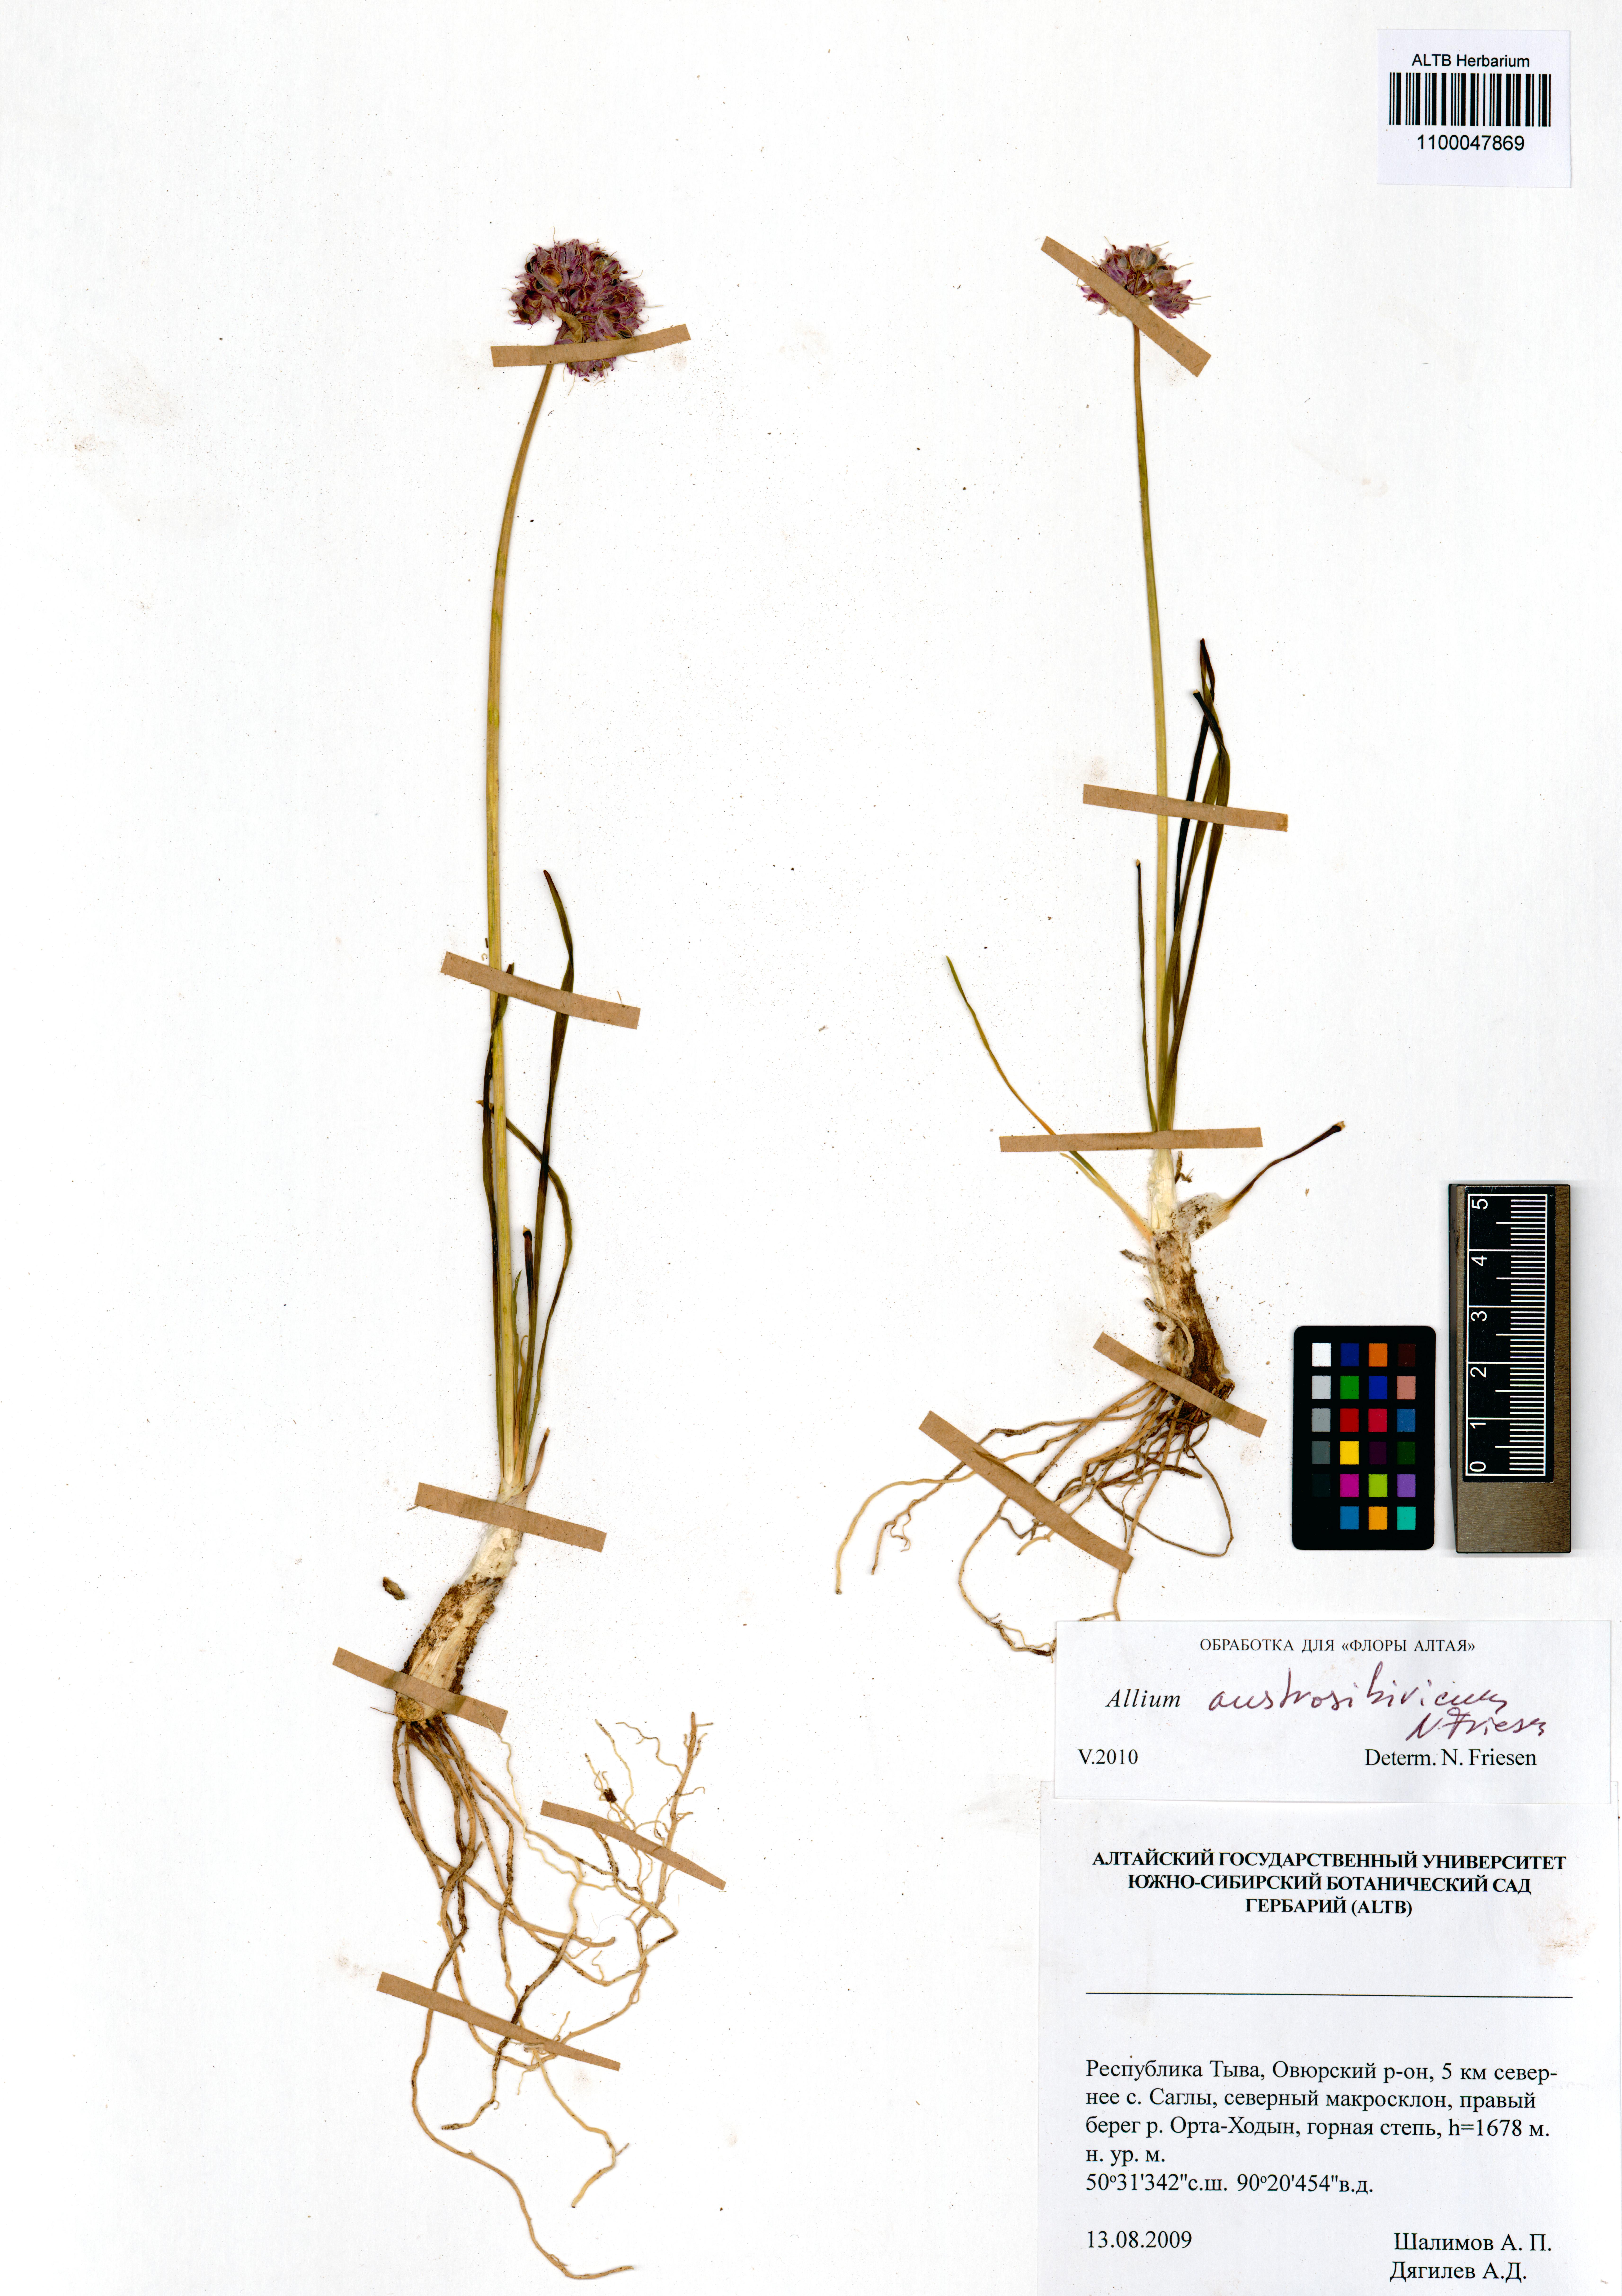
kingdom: Plantae
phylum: Tracheophyta
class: Liliopsida
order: Asparagales
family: Amaryllidaceae
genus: Allium
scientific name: Allium austrosibiricum
